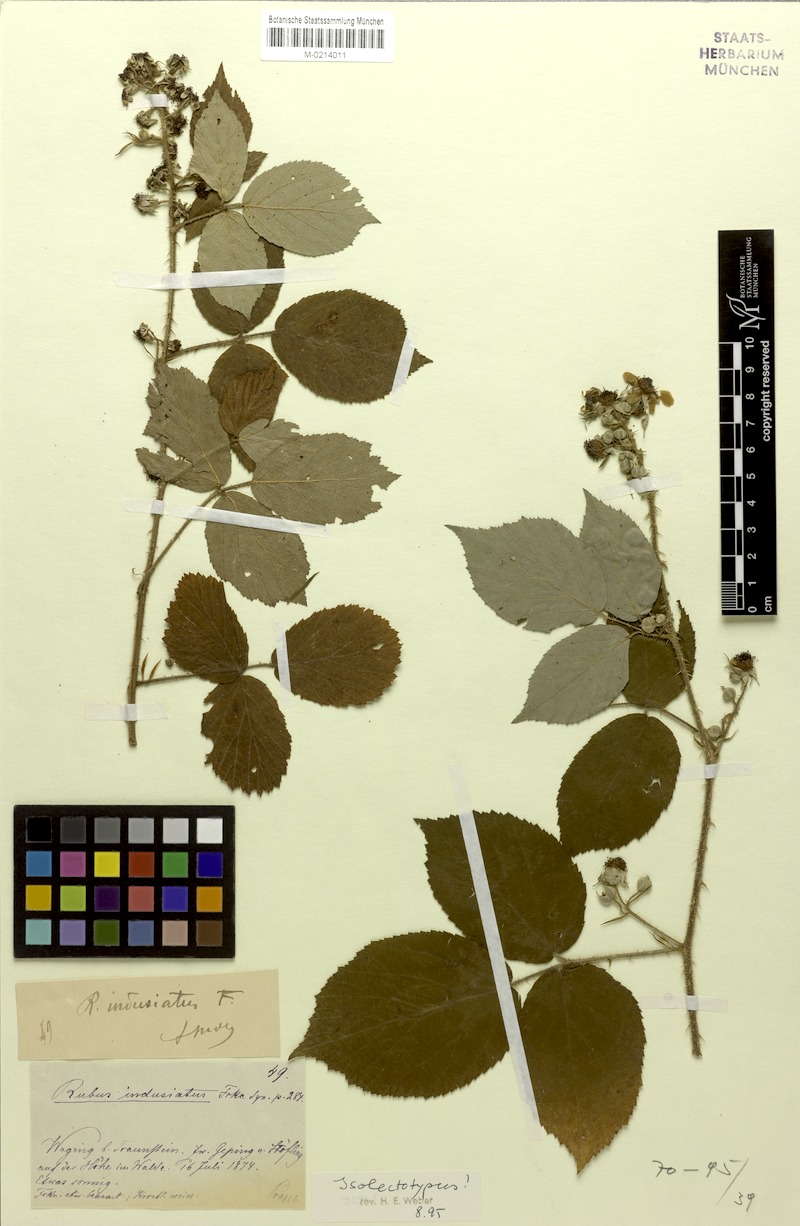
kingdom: Plantae
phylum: Tracheophyta
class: Magnoliopsida
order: Rosales
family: Rosaceae
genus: Rubus
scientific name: Rubus indusiatus
